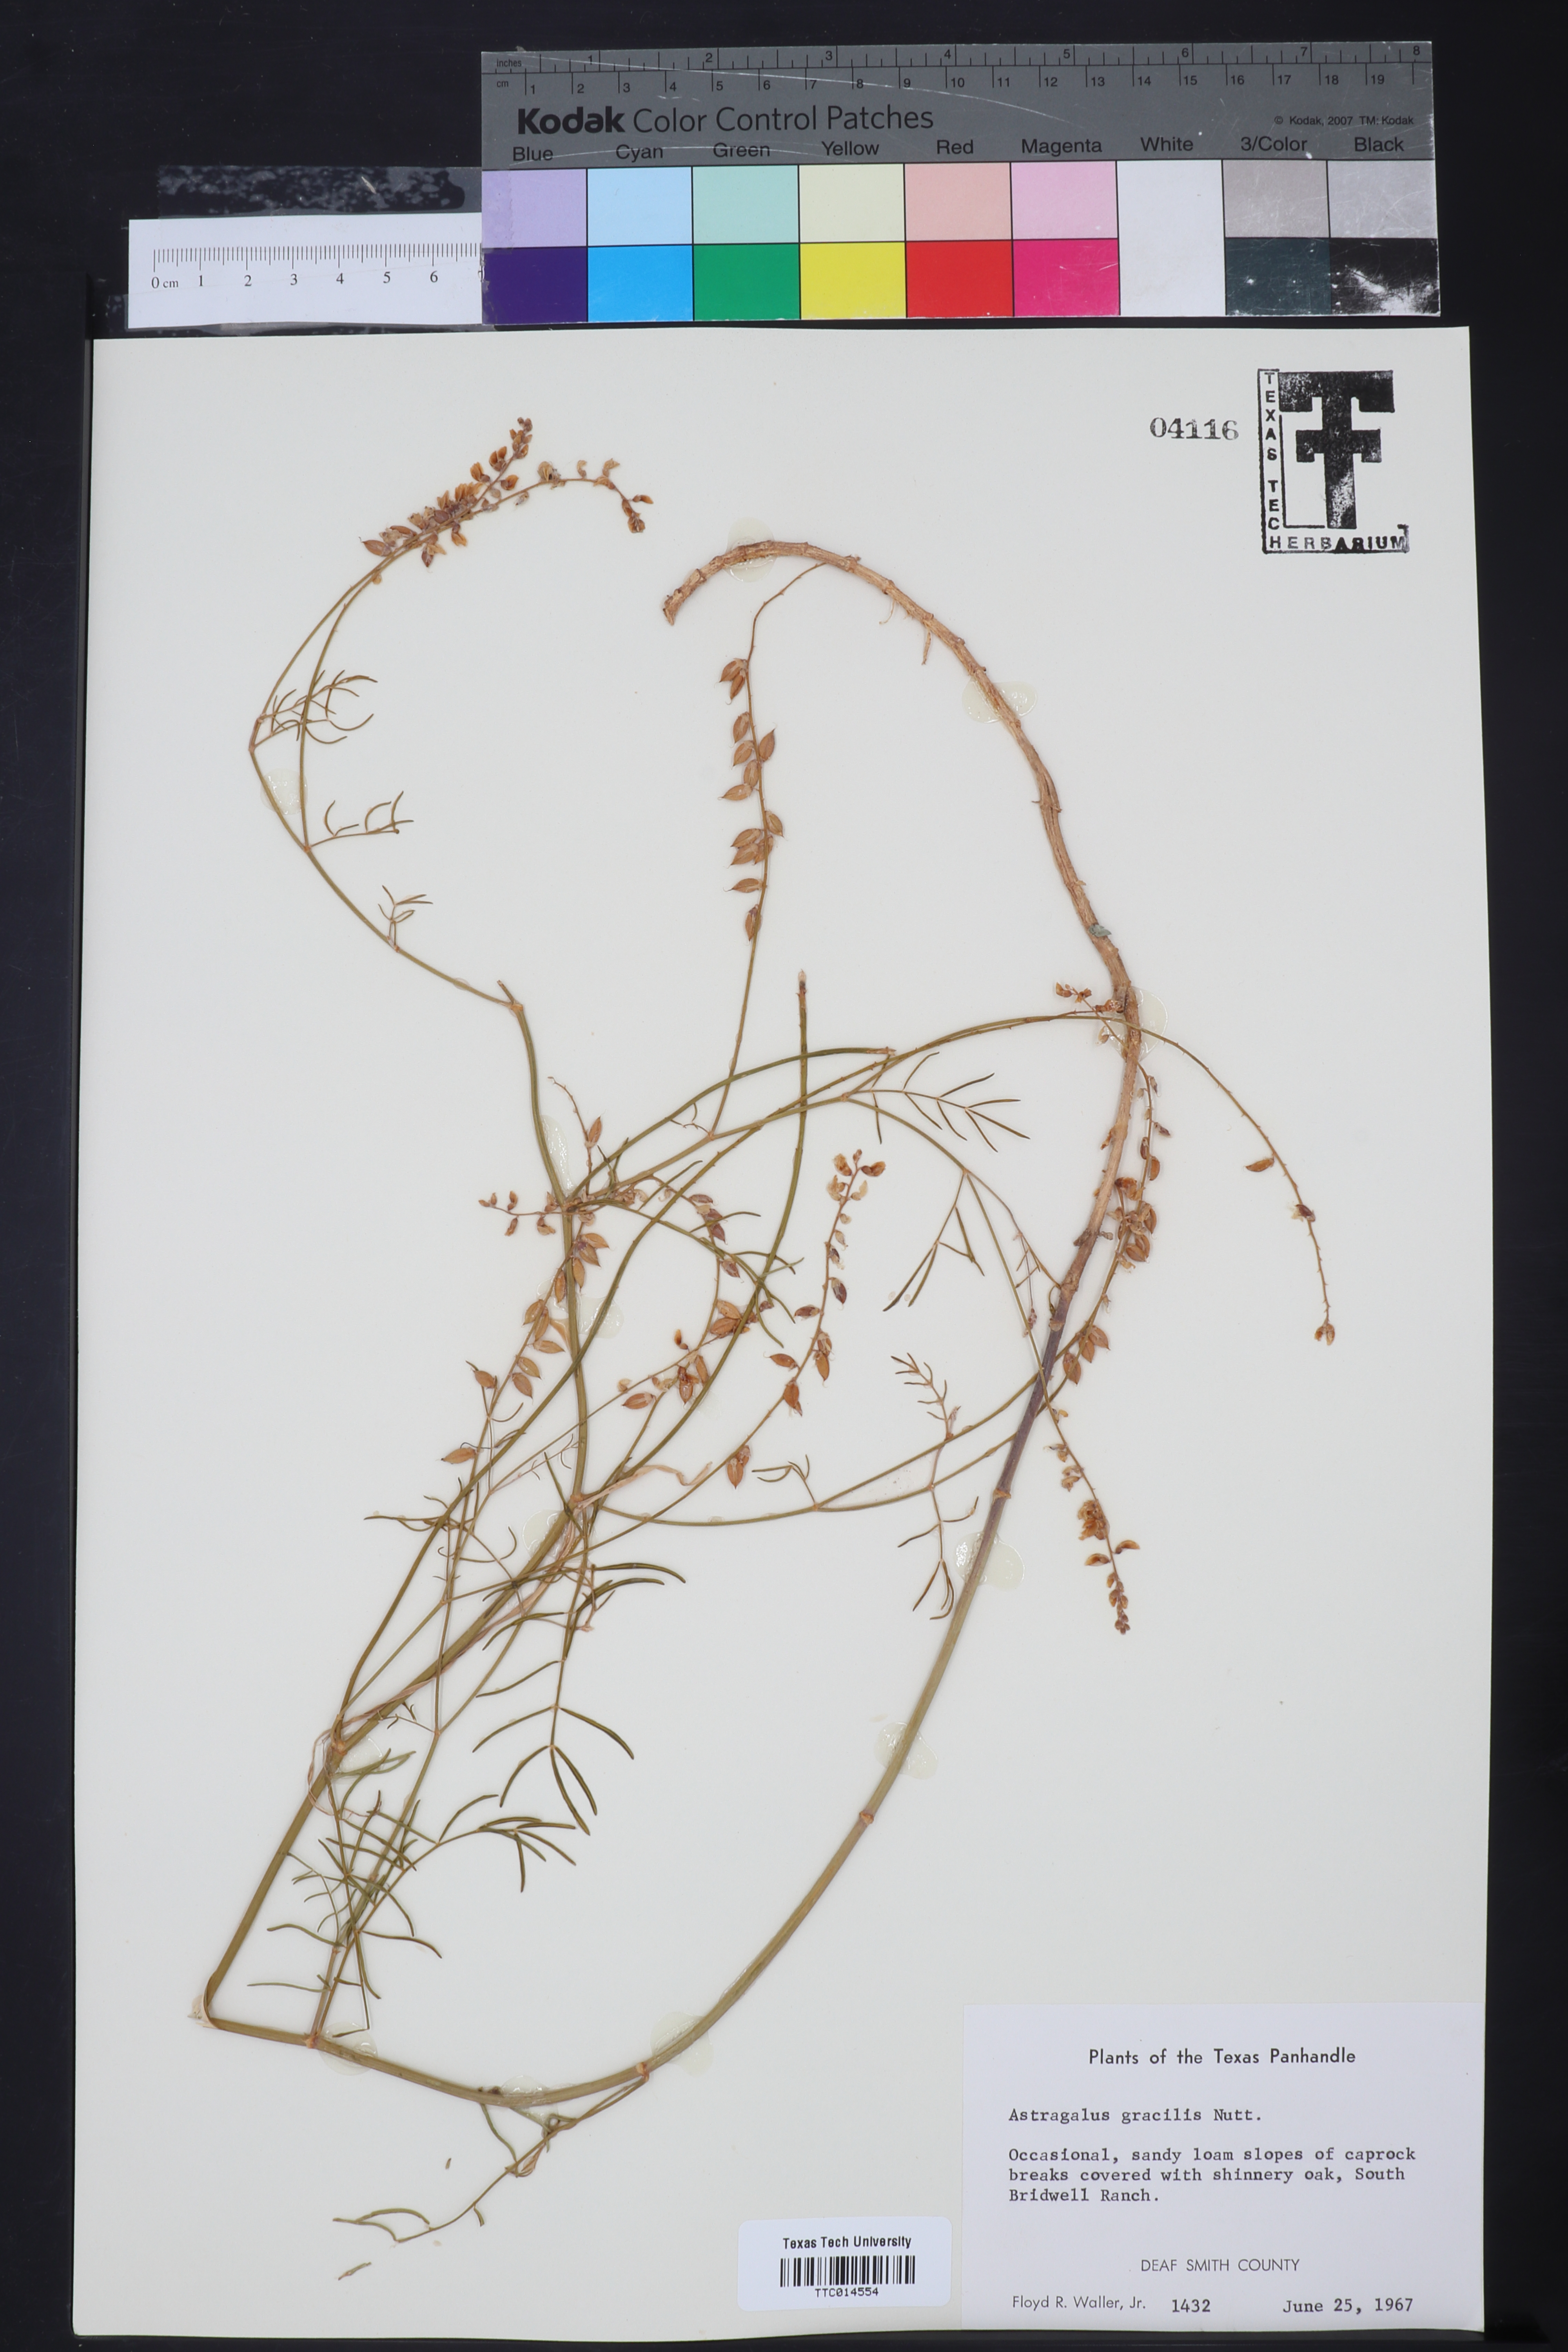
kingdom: Plantae
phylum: Tracheophyta
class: Magnoliopsida
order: Fabales
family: Fabaceae
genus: Astragalus
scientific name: Astragalus gracilis
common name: Slender milk-vetch
